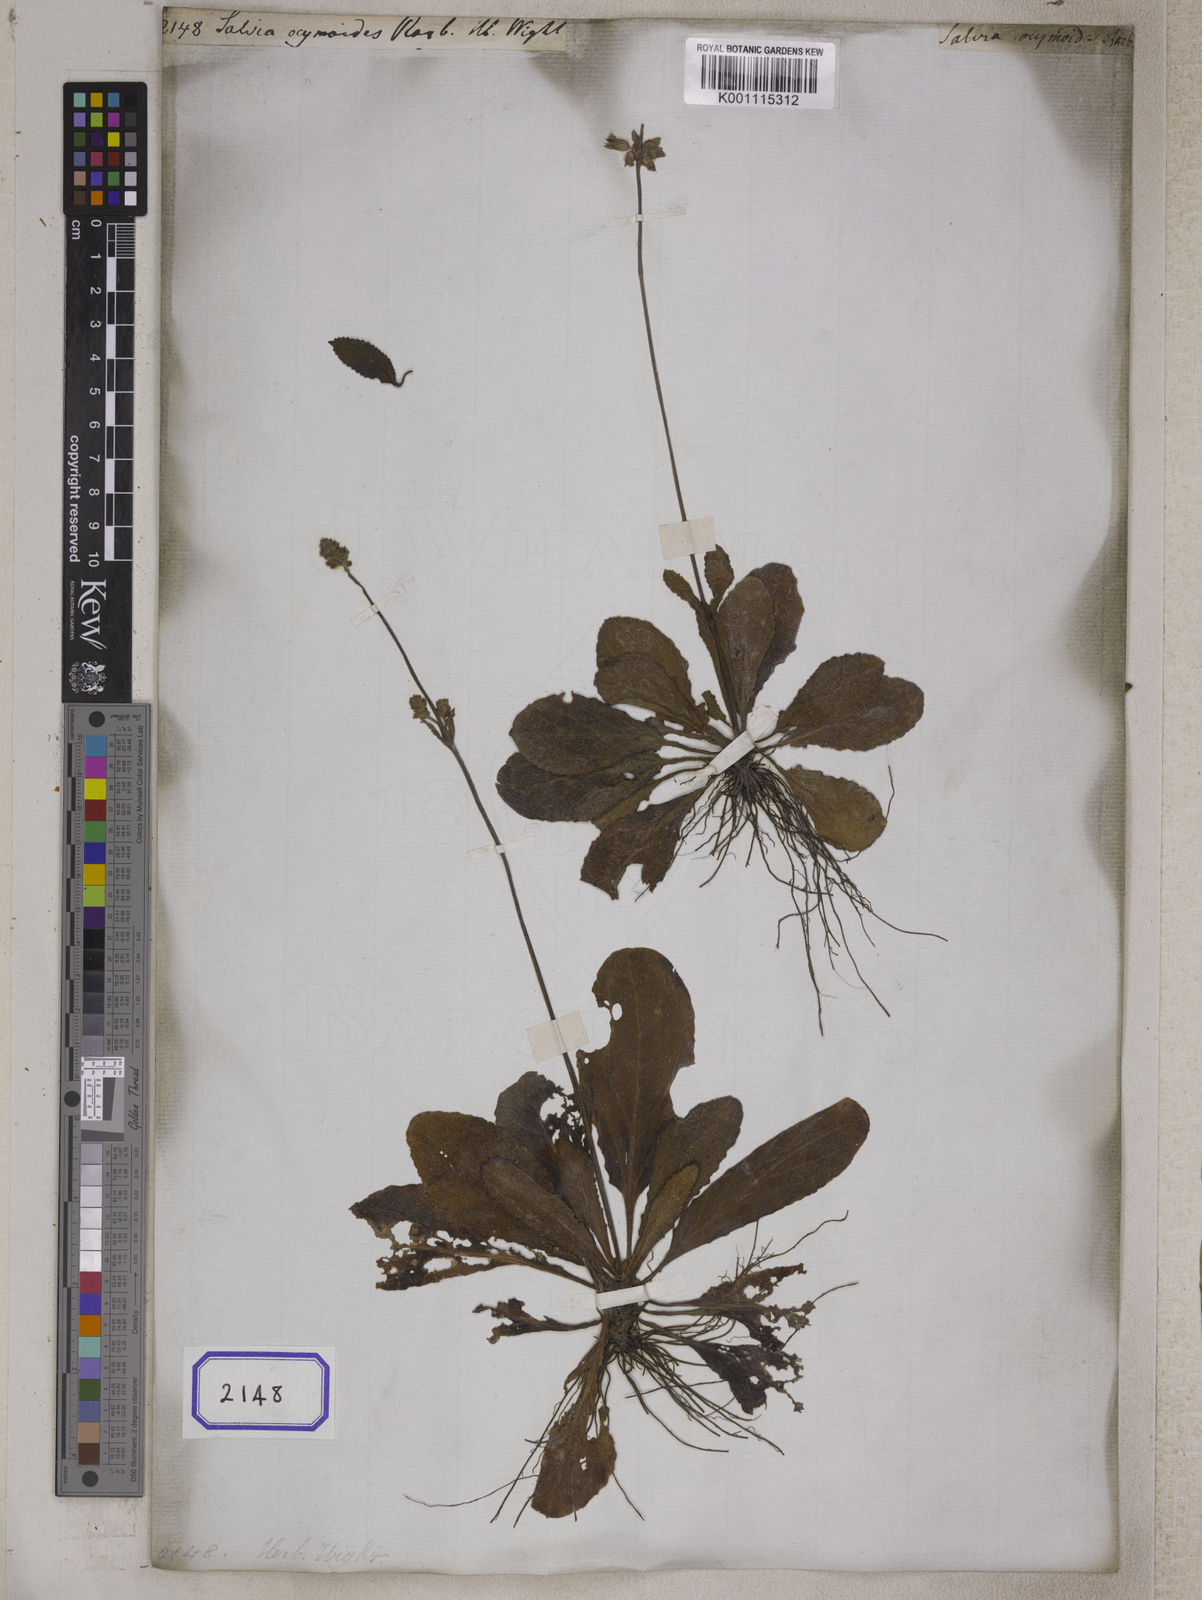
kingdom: Plantae
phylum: Tracheophyta
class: Magnoliopsida
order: Lamiales
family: Lamiaceae
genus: Salvia
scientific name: Salvia lyrata
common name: Cancerweed
